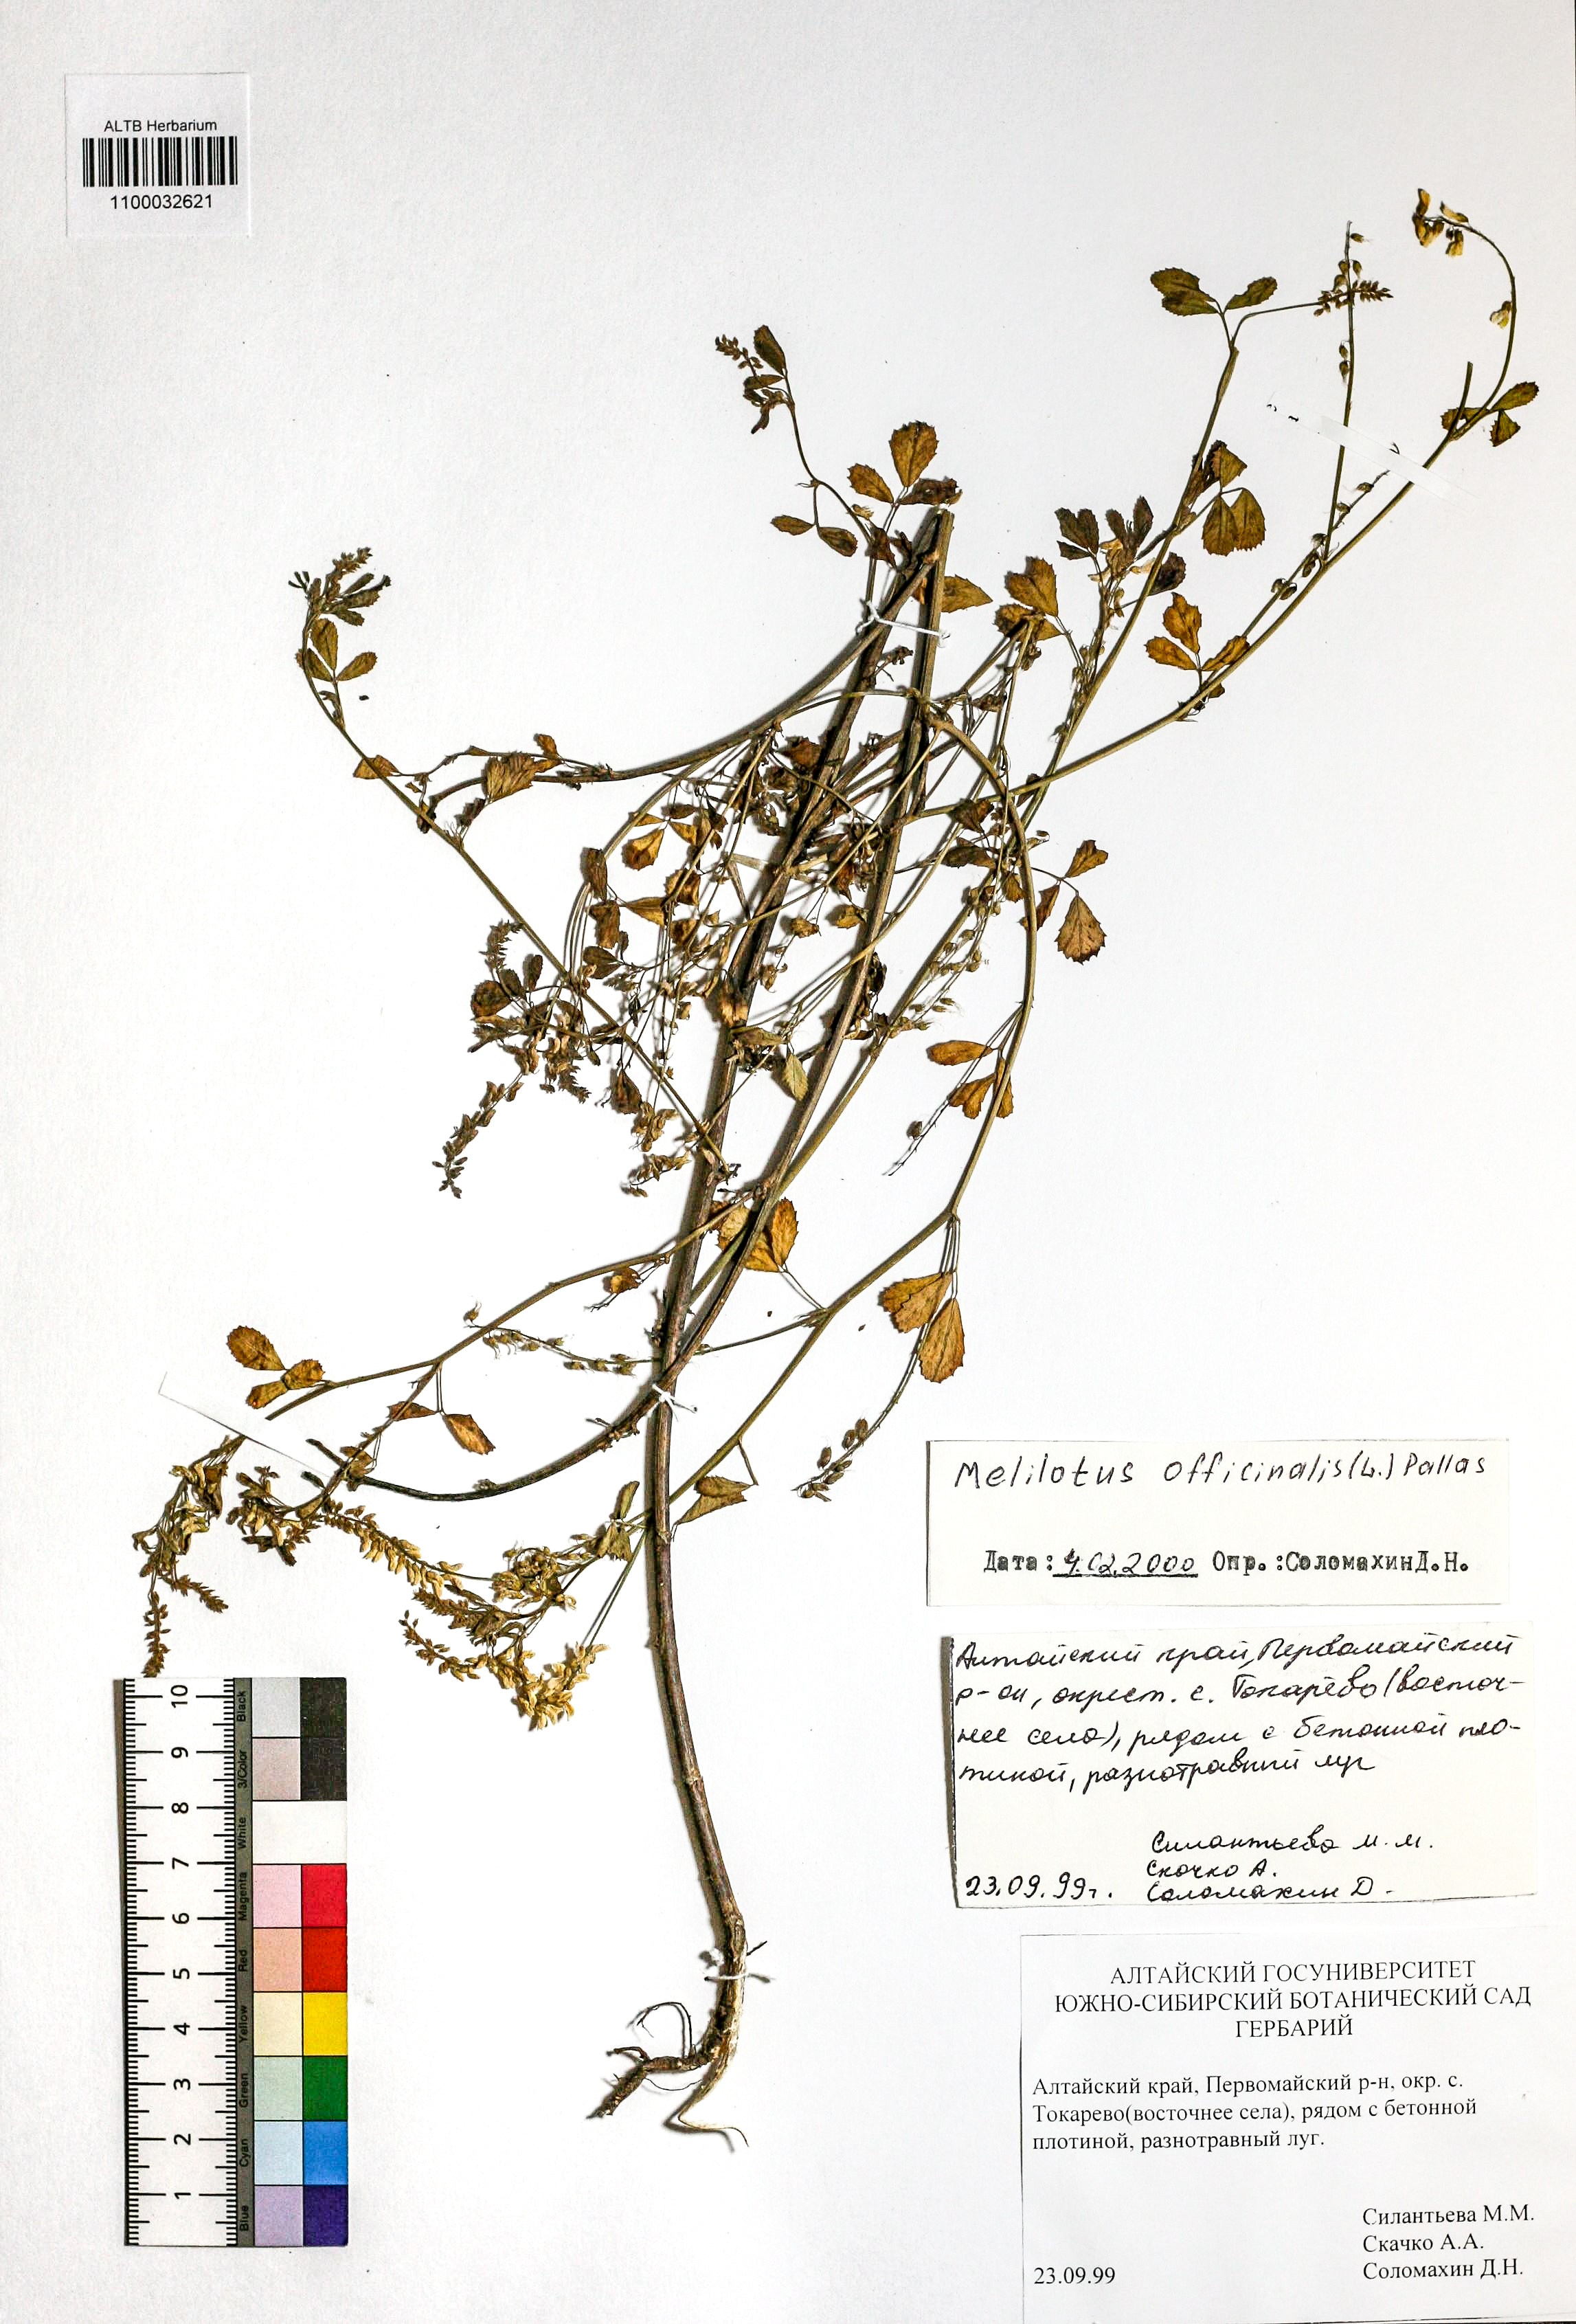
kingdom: Plantae
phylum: Tracheophyta
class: Magnoliopsida
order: Fabales
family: Fabaceae
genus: Melilotus
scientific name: Melilotus officinalis
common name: Sweetclover
